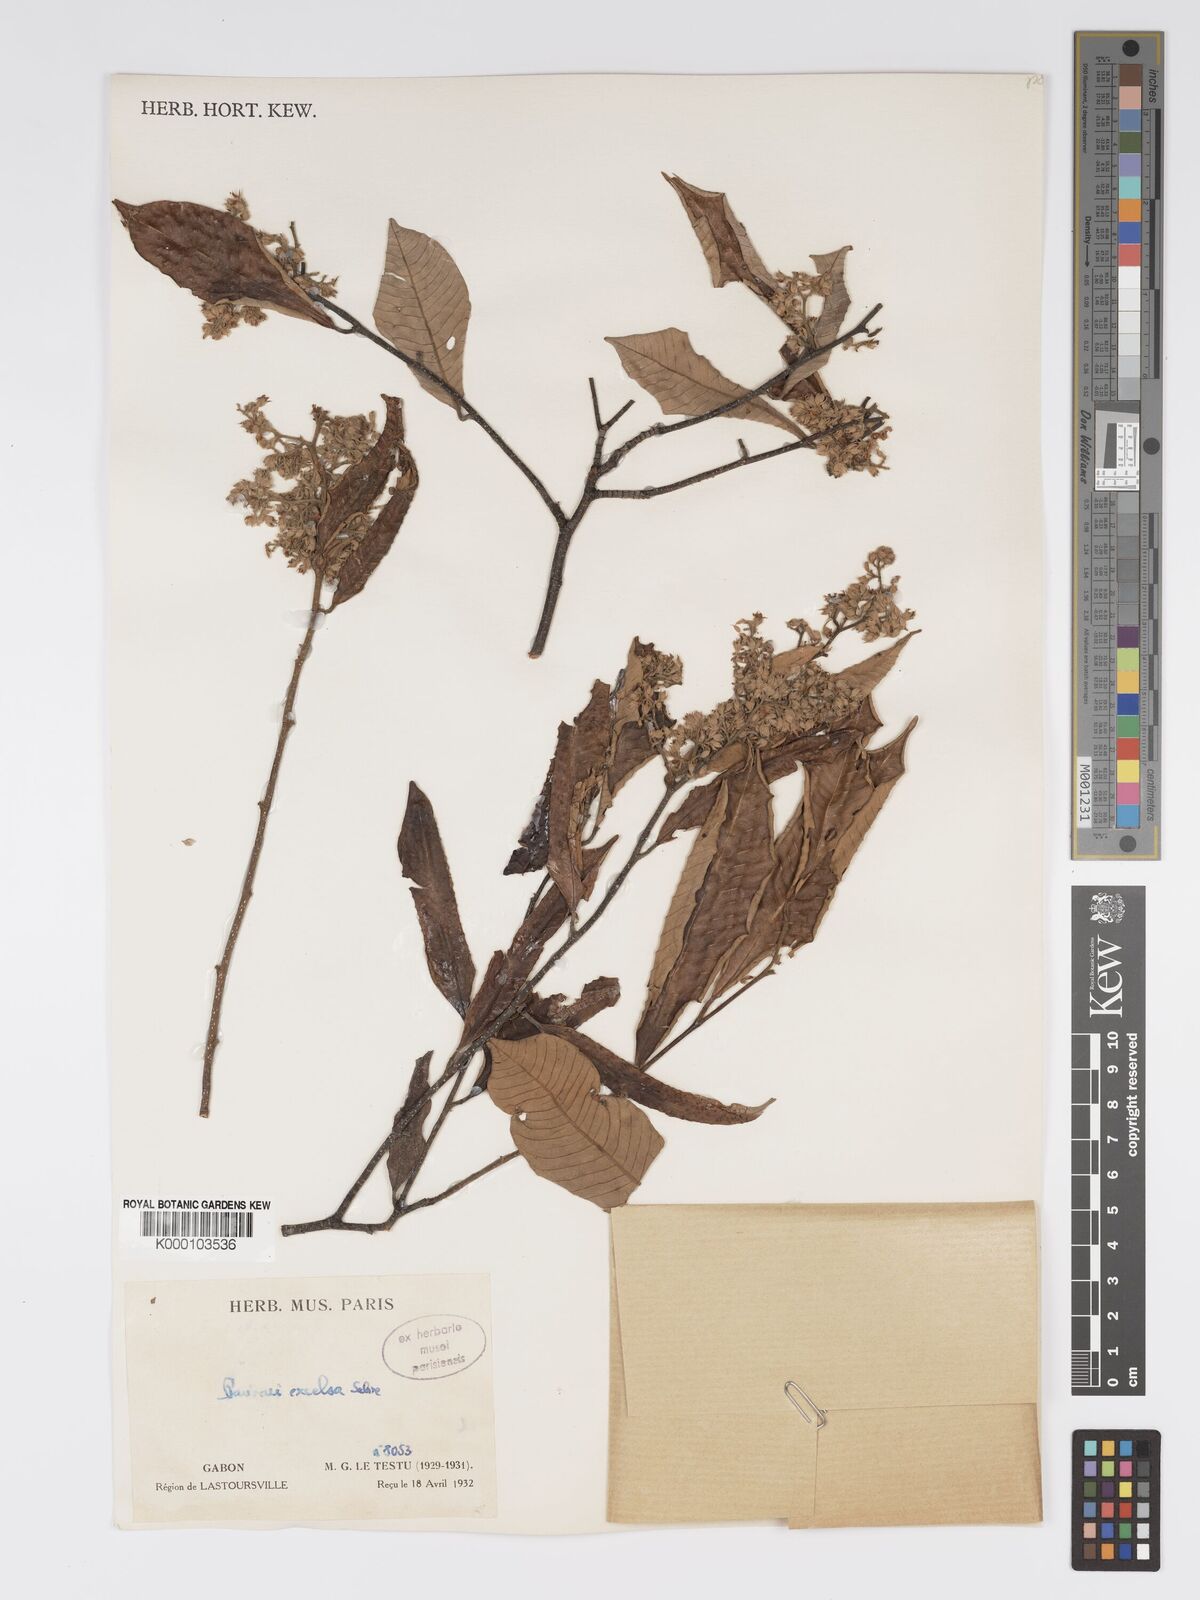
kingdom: Plantae
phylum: Tracheophyta
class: Magnoliopsida
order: Malpighiales
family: Chrysobalanaceae
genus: Parinari
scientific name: Parinari excelsa
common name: Guinea-plum
